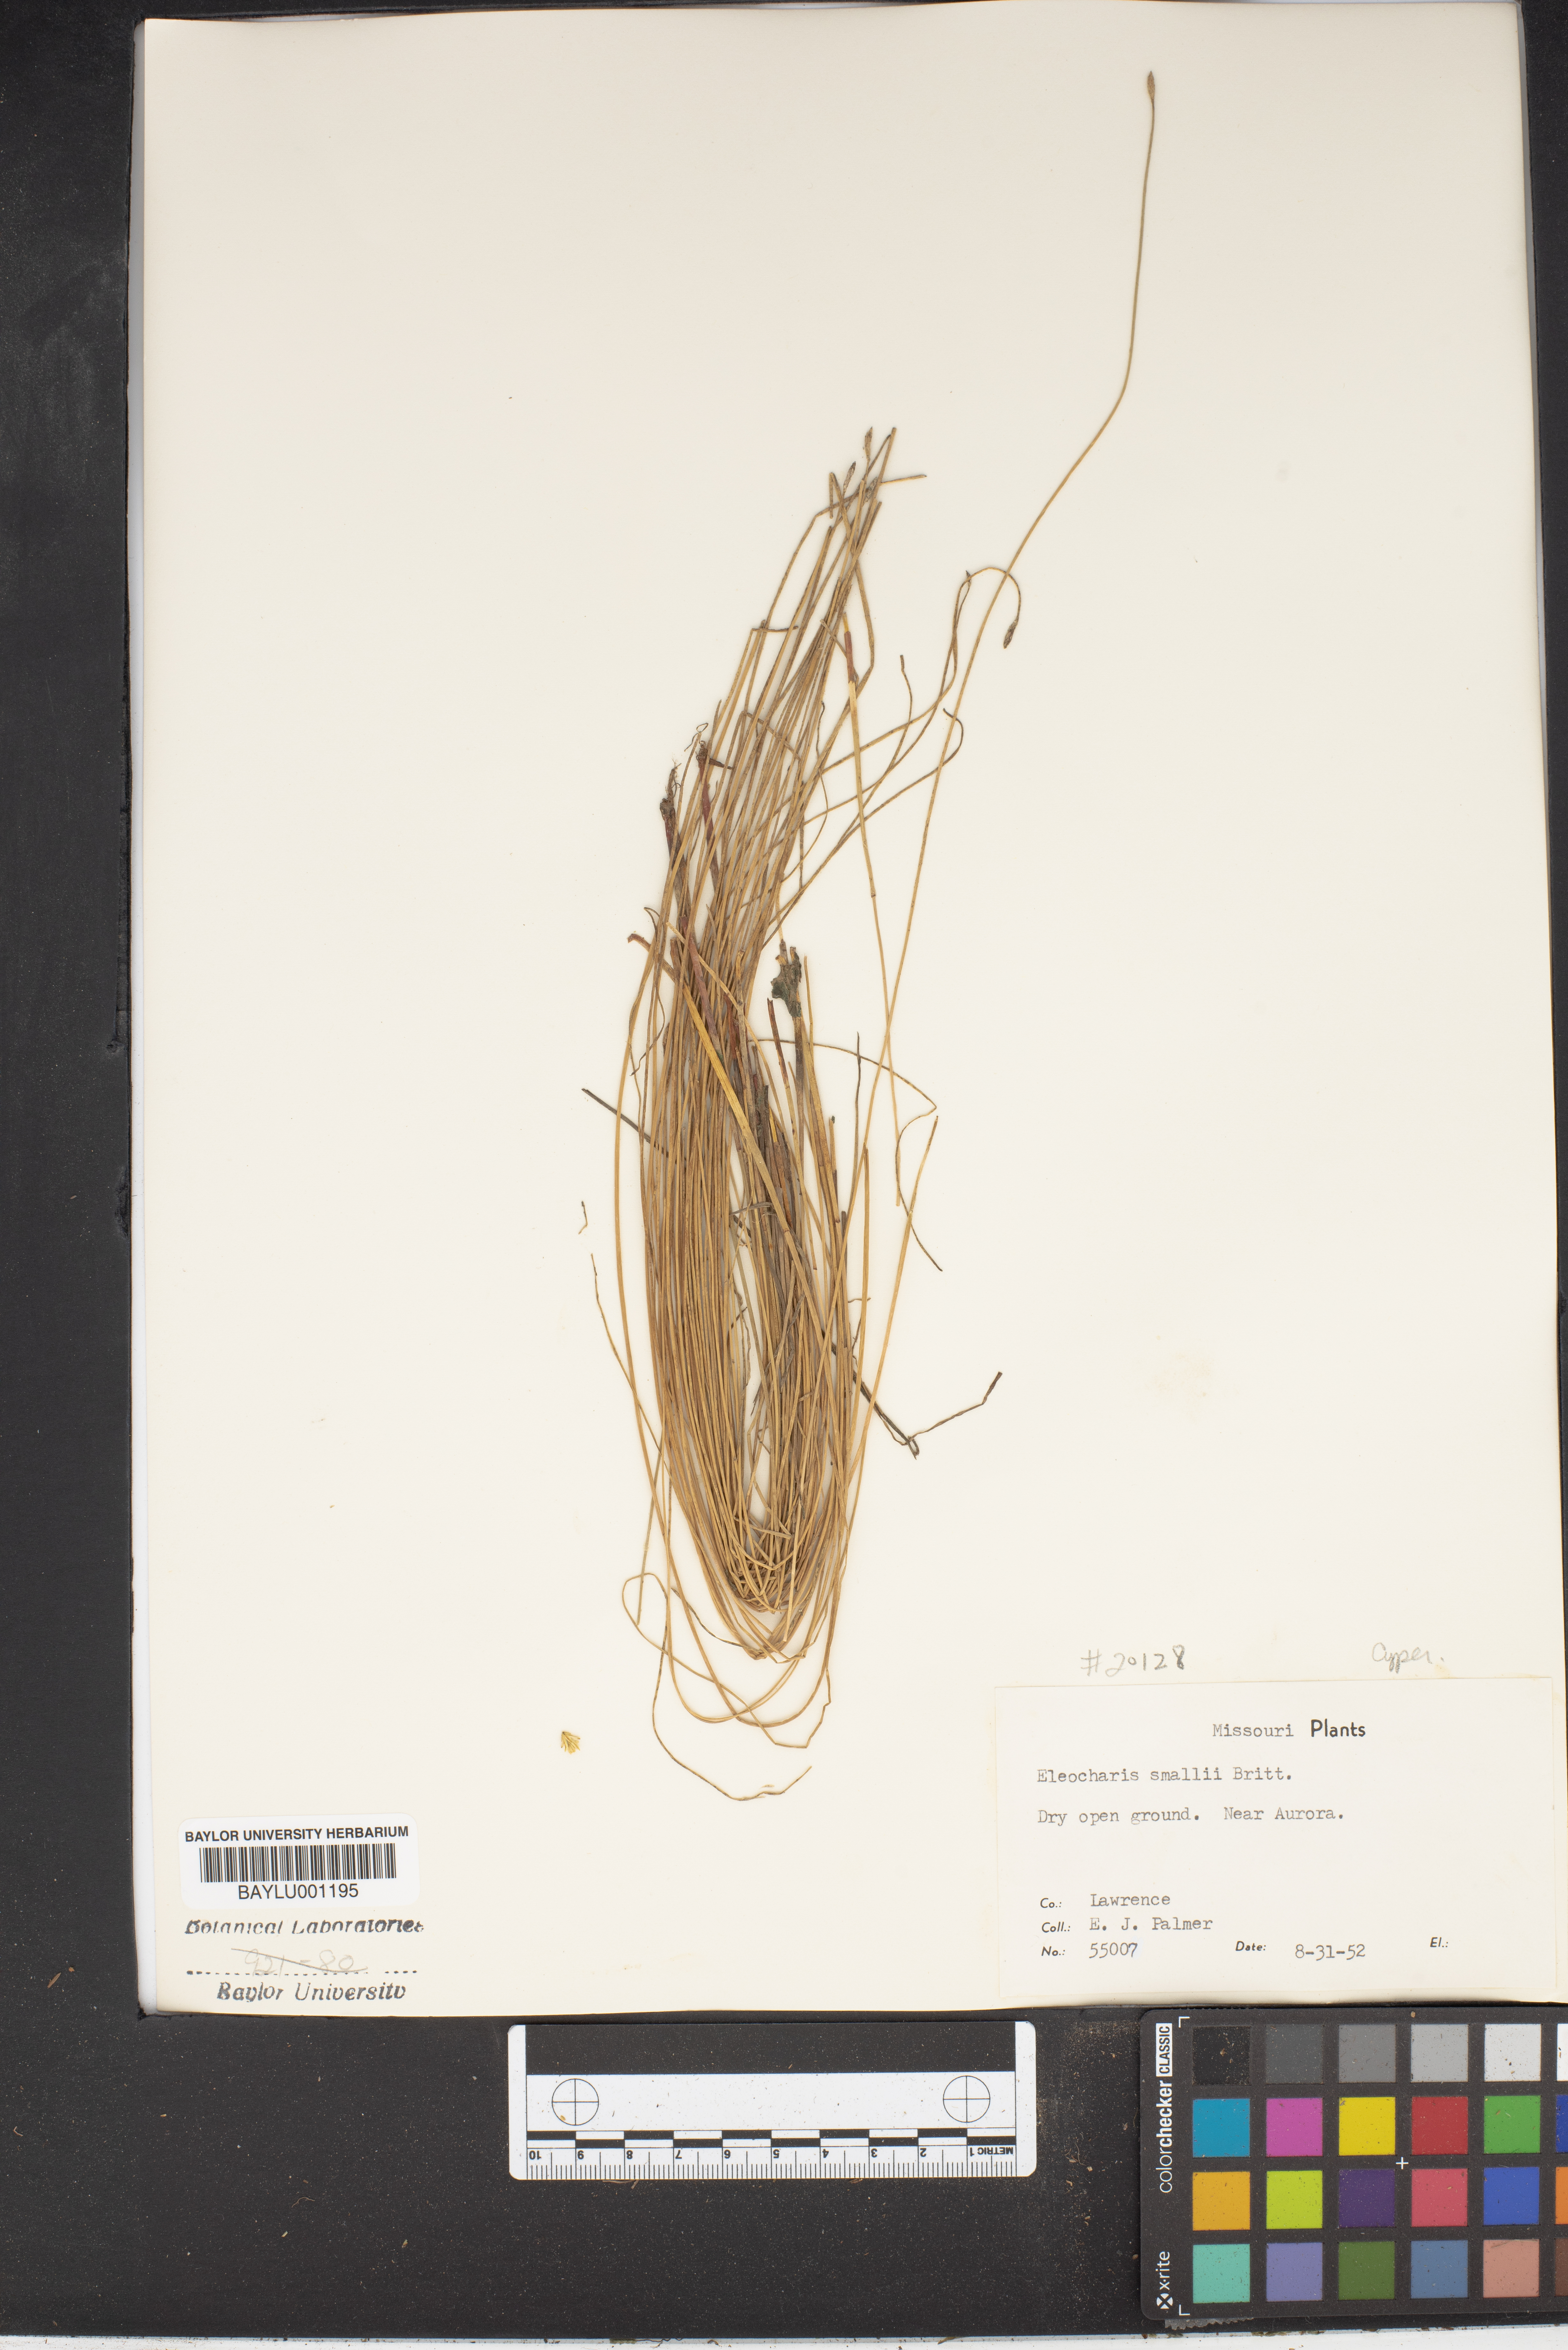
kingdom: Plantae
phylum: Tracheophyta
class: Liliopsida
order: Poales
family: Cyperaceae
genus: Eleocharis
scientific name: Eleocharis palustris
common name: Common spike-rush
